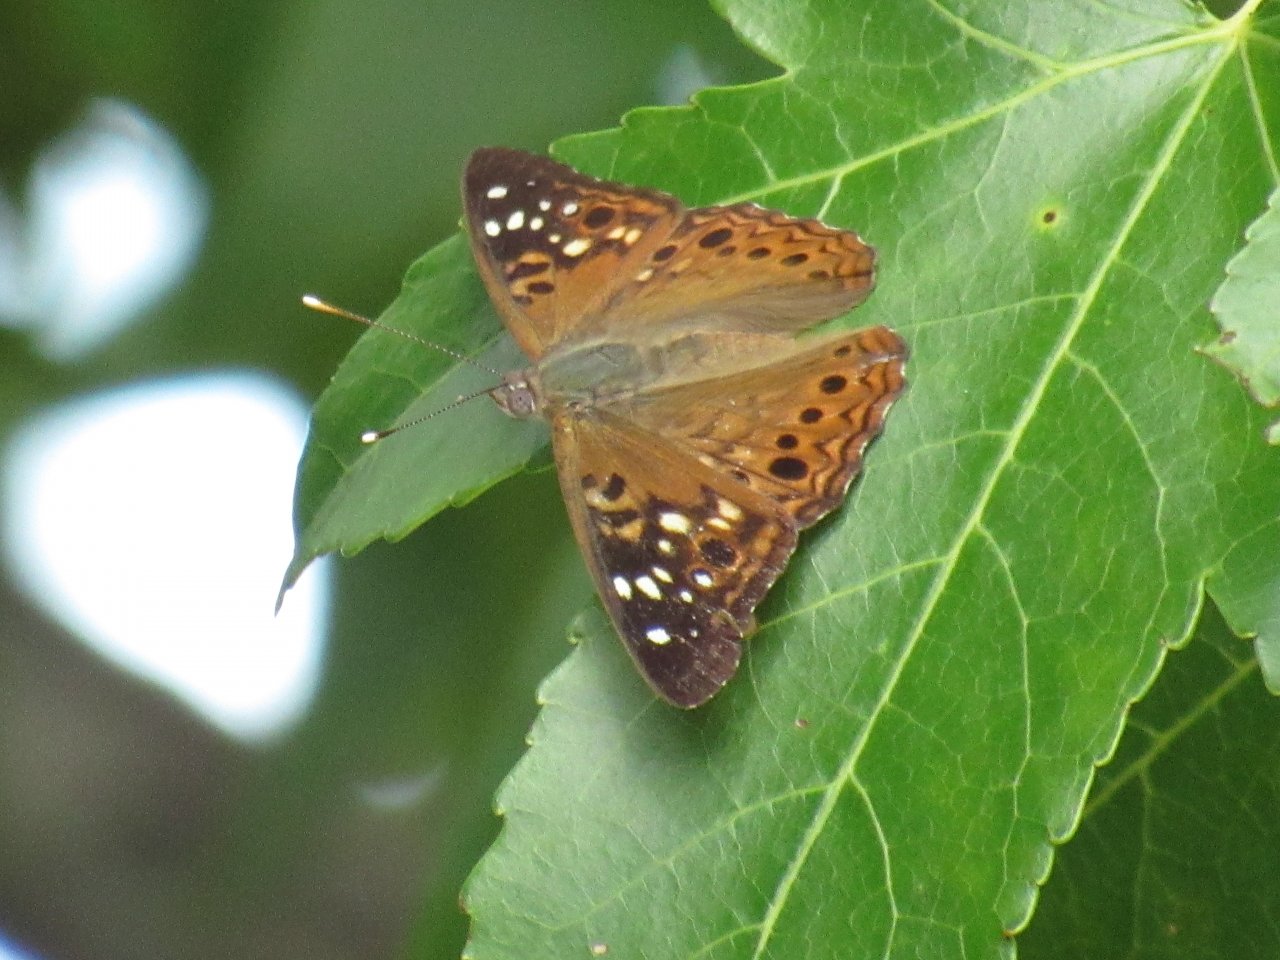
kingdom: Animalia
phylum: Arthropoda
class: Insecta
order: Lepidoptera
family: Nymphalidae
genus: Asterocampa
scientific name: Asterocampa celtis
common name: Hackberry Emperor
